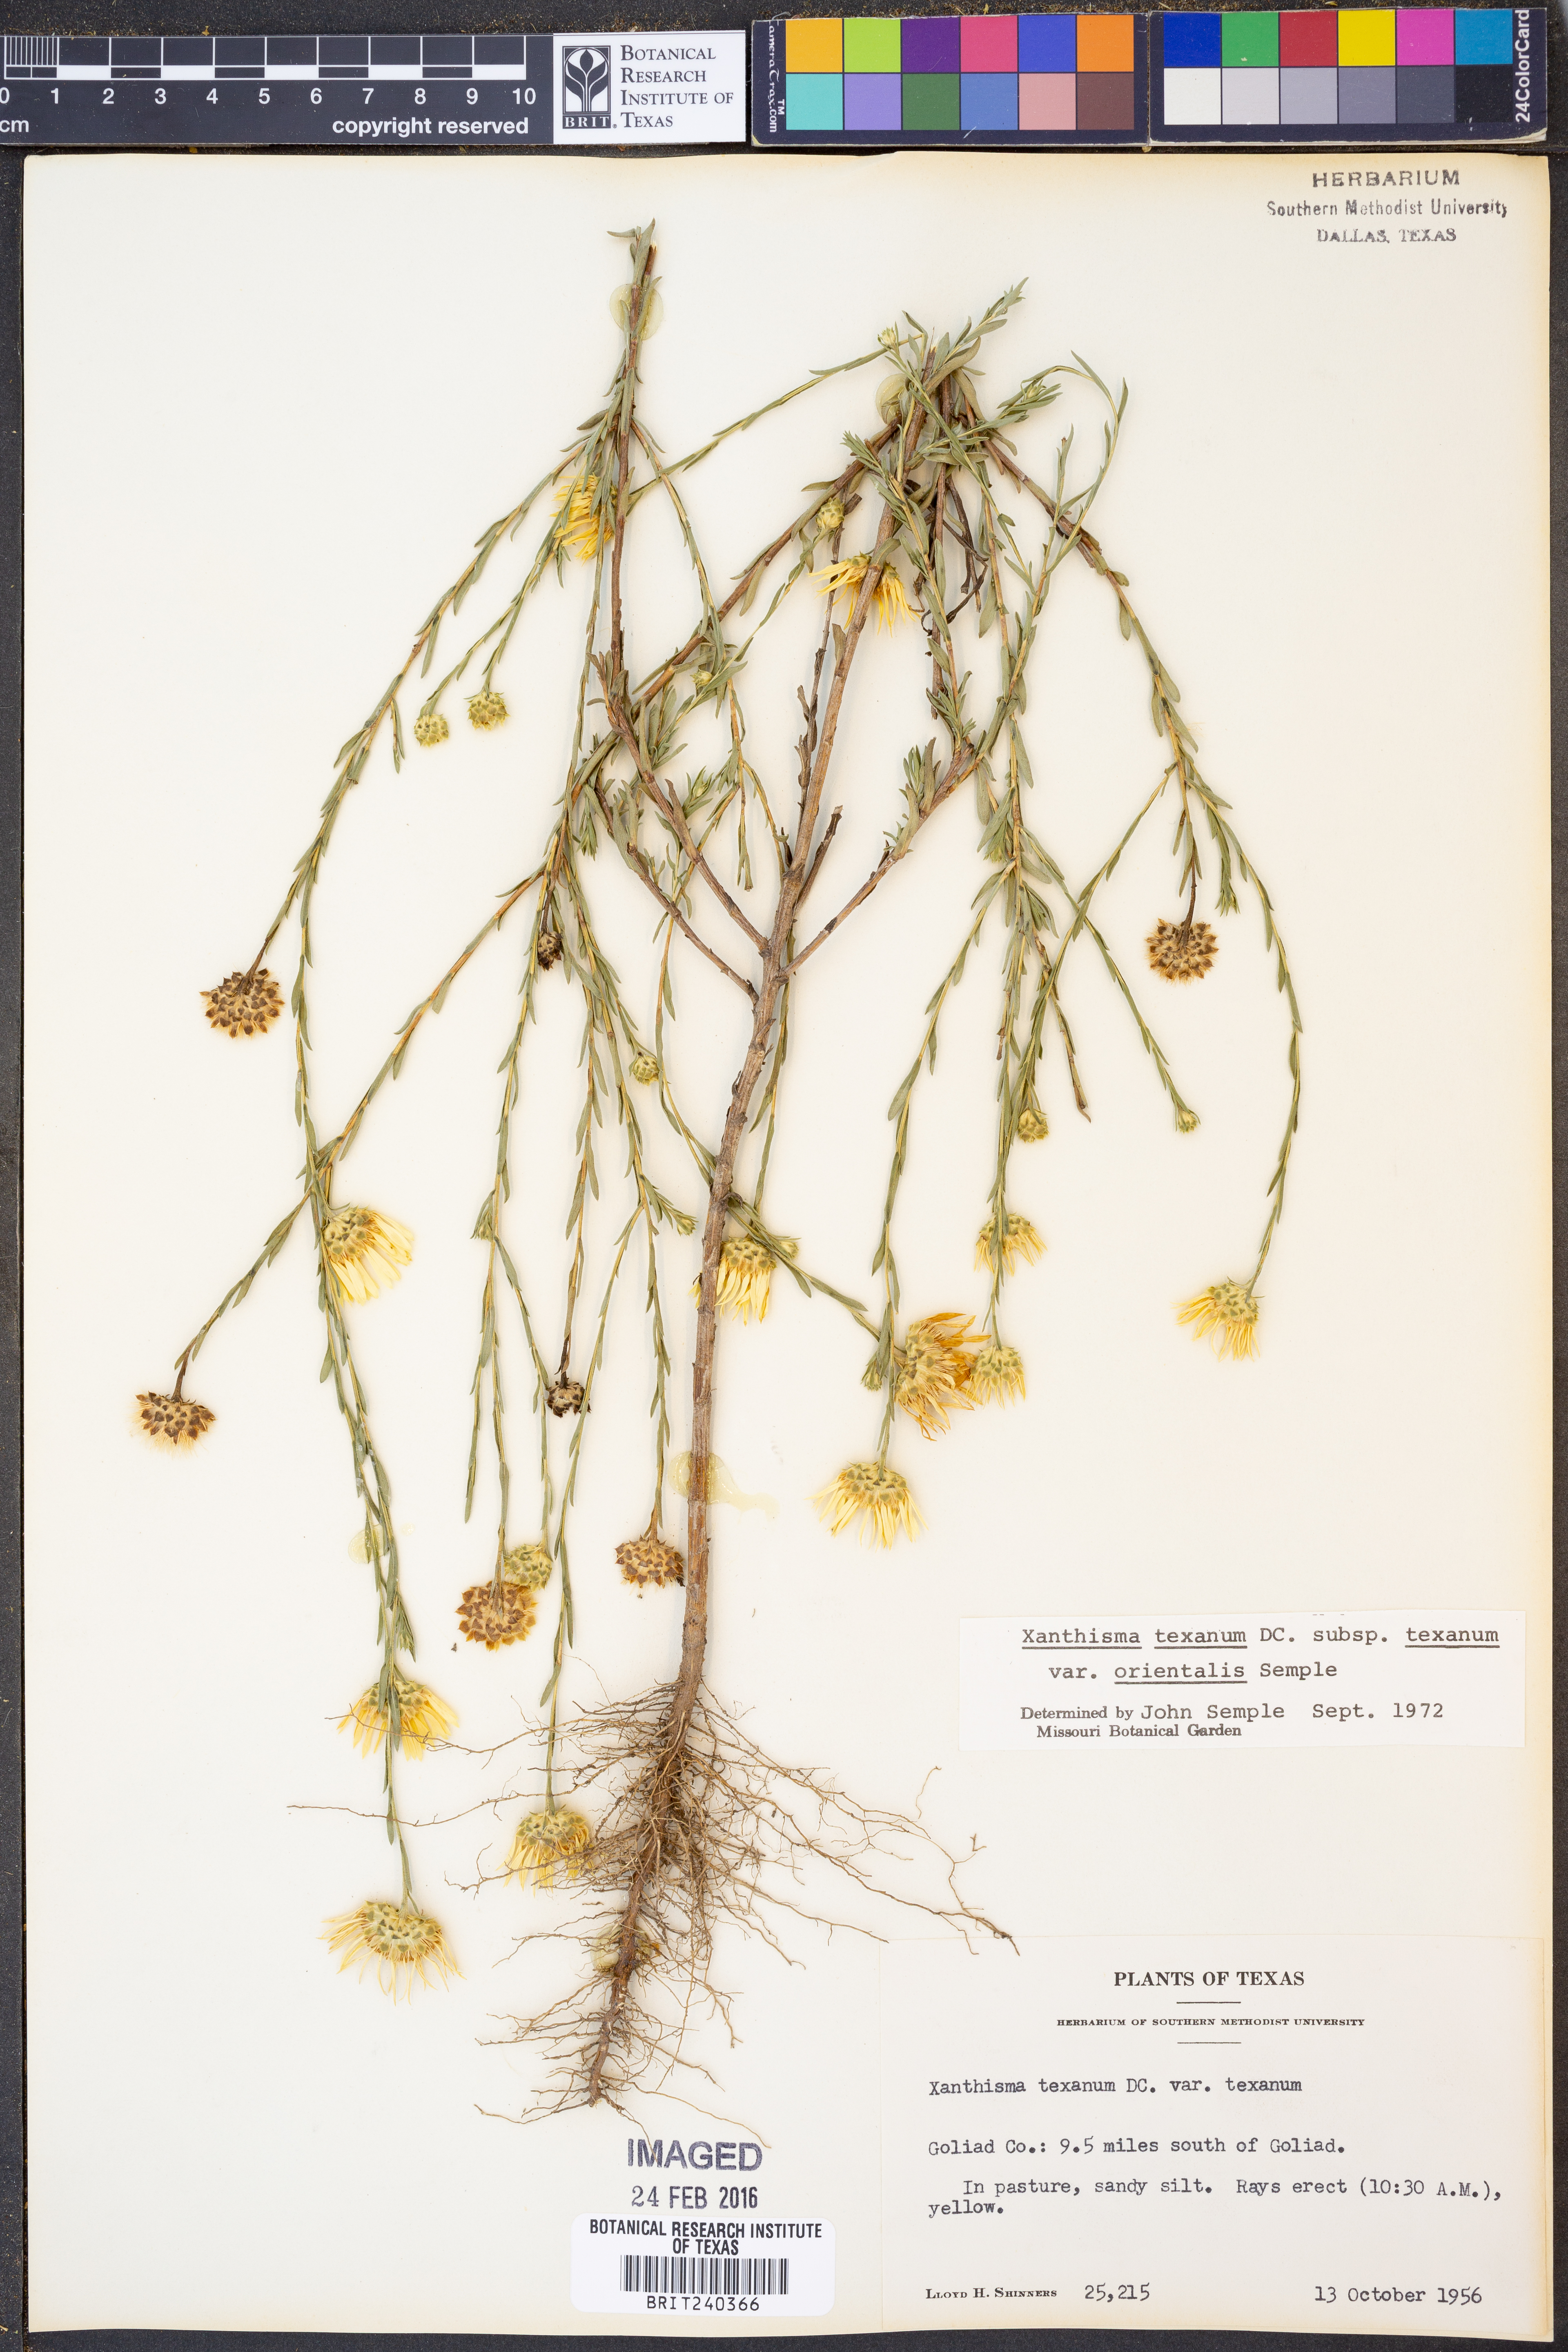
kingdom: Plantae
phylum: Tracheophyta
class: Magnoliopsida
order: Asterales
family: Asteraceae
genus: Xanthisma
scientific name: Xanthisma texanum
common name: Texas sleepy daisy
